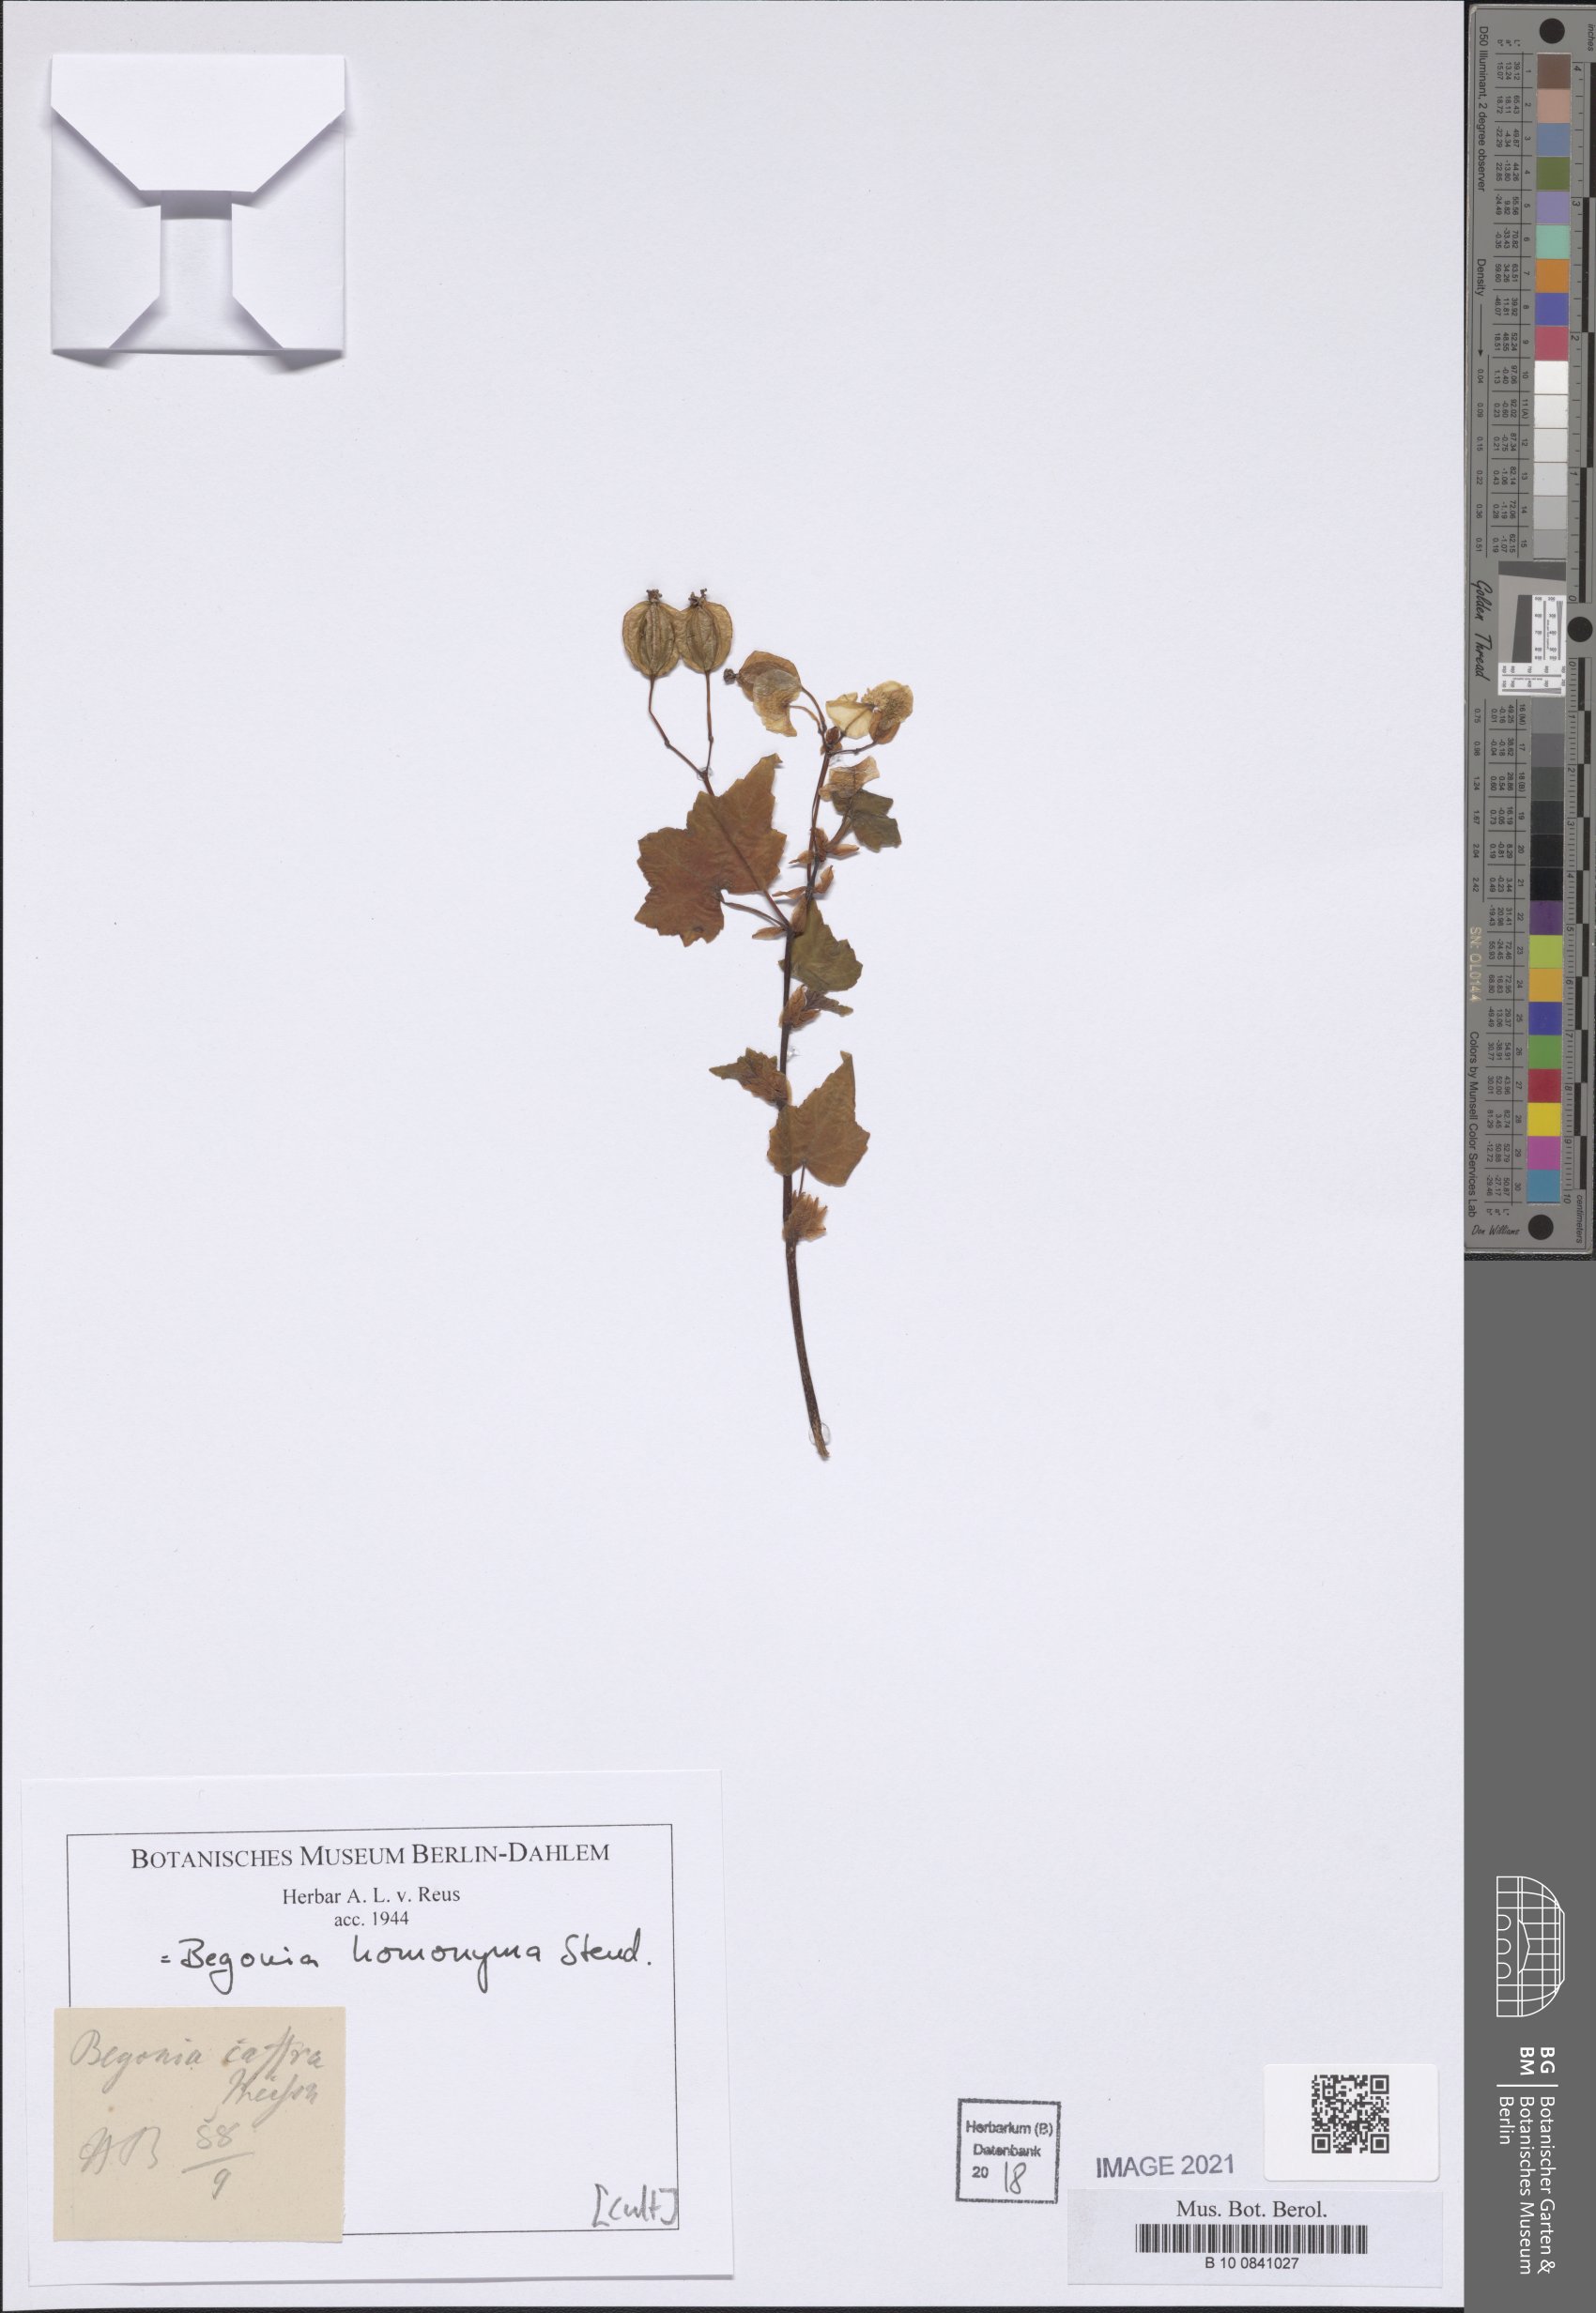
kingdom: Plantae
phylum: Tracheophyta
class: Magnoliopsida
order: Cucurbitales
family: Begoniaceae
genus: Begonia
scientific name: Begonia homonyma
